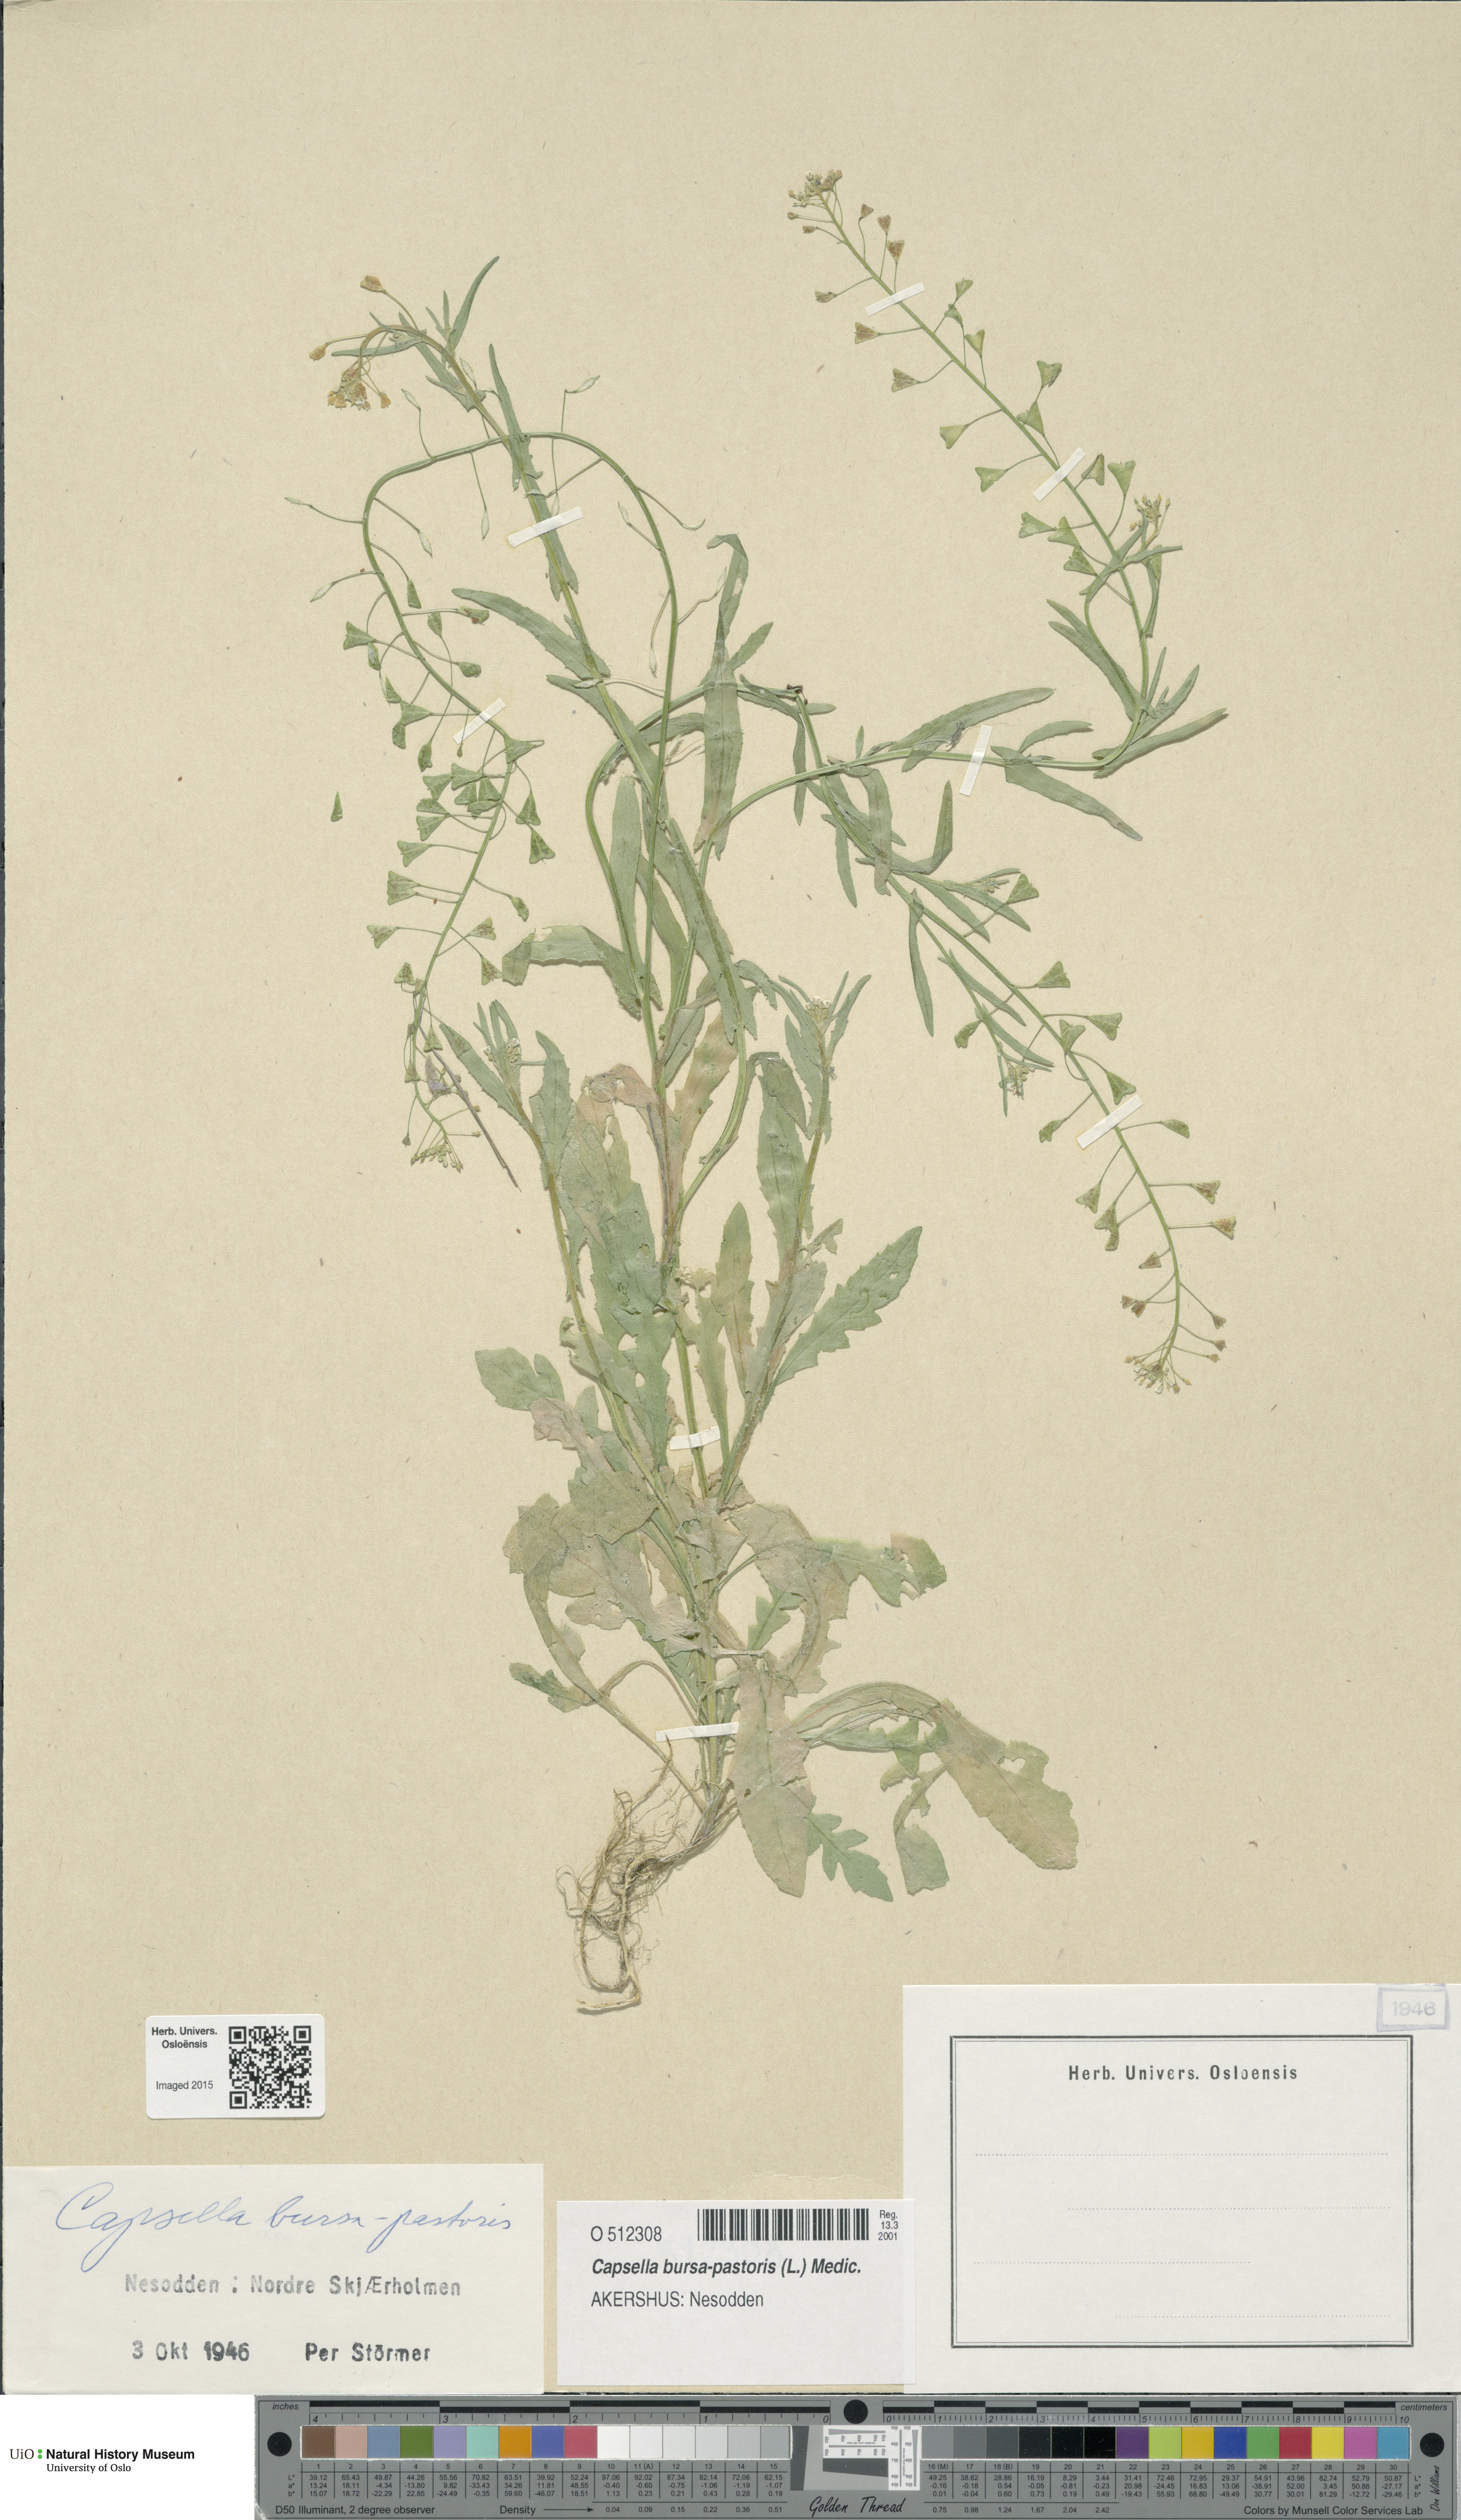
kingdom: Plantae
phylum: Tracheophyta
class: Magnoliopsida
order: Brassicales
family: Brassicaceae
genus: Capsella
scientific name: Capsella bursa-pastoris
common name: Shepherd's purse
